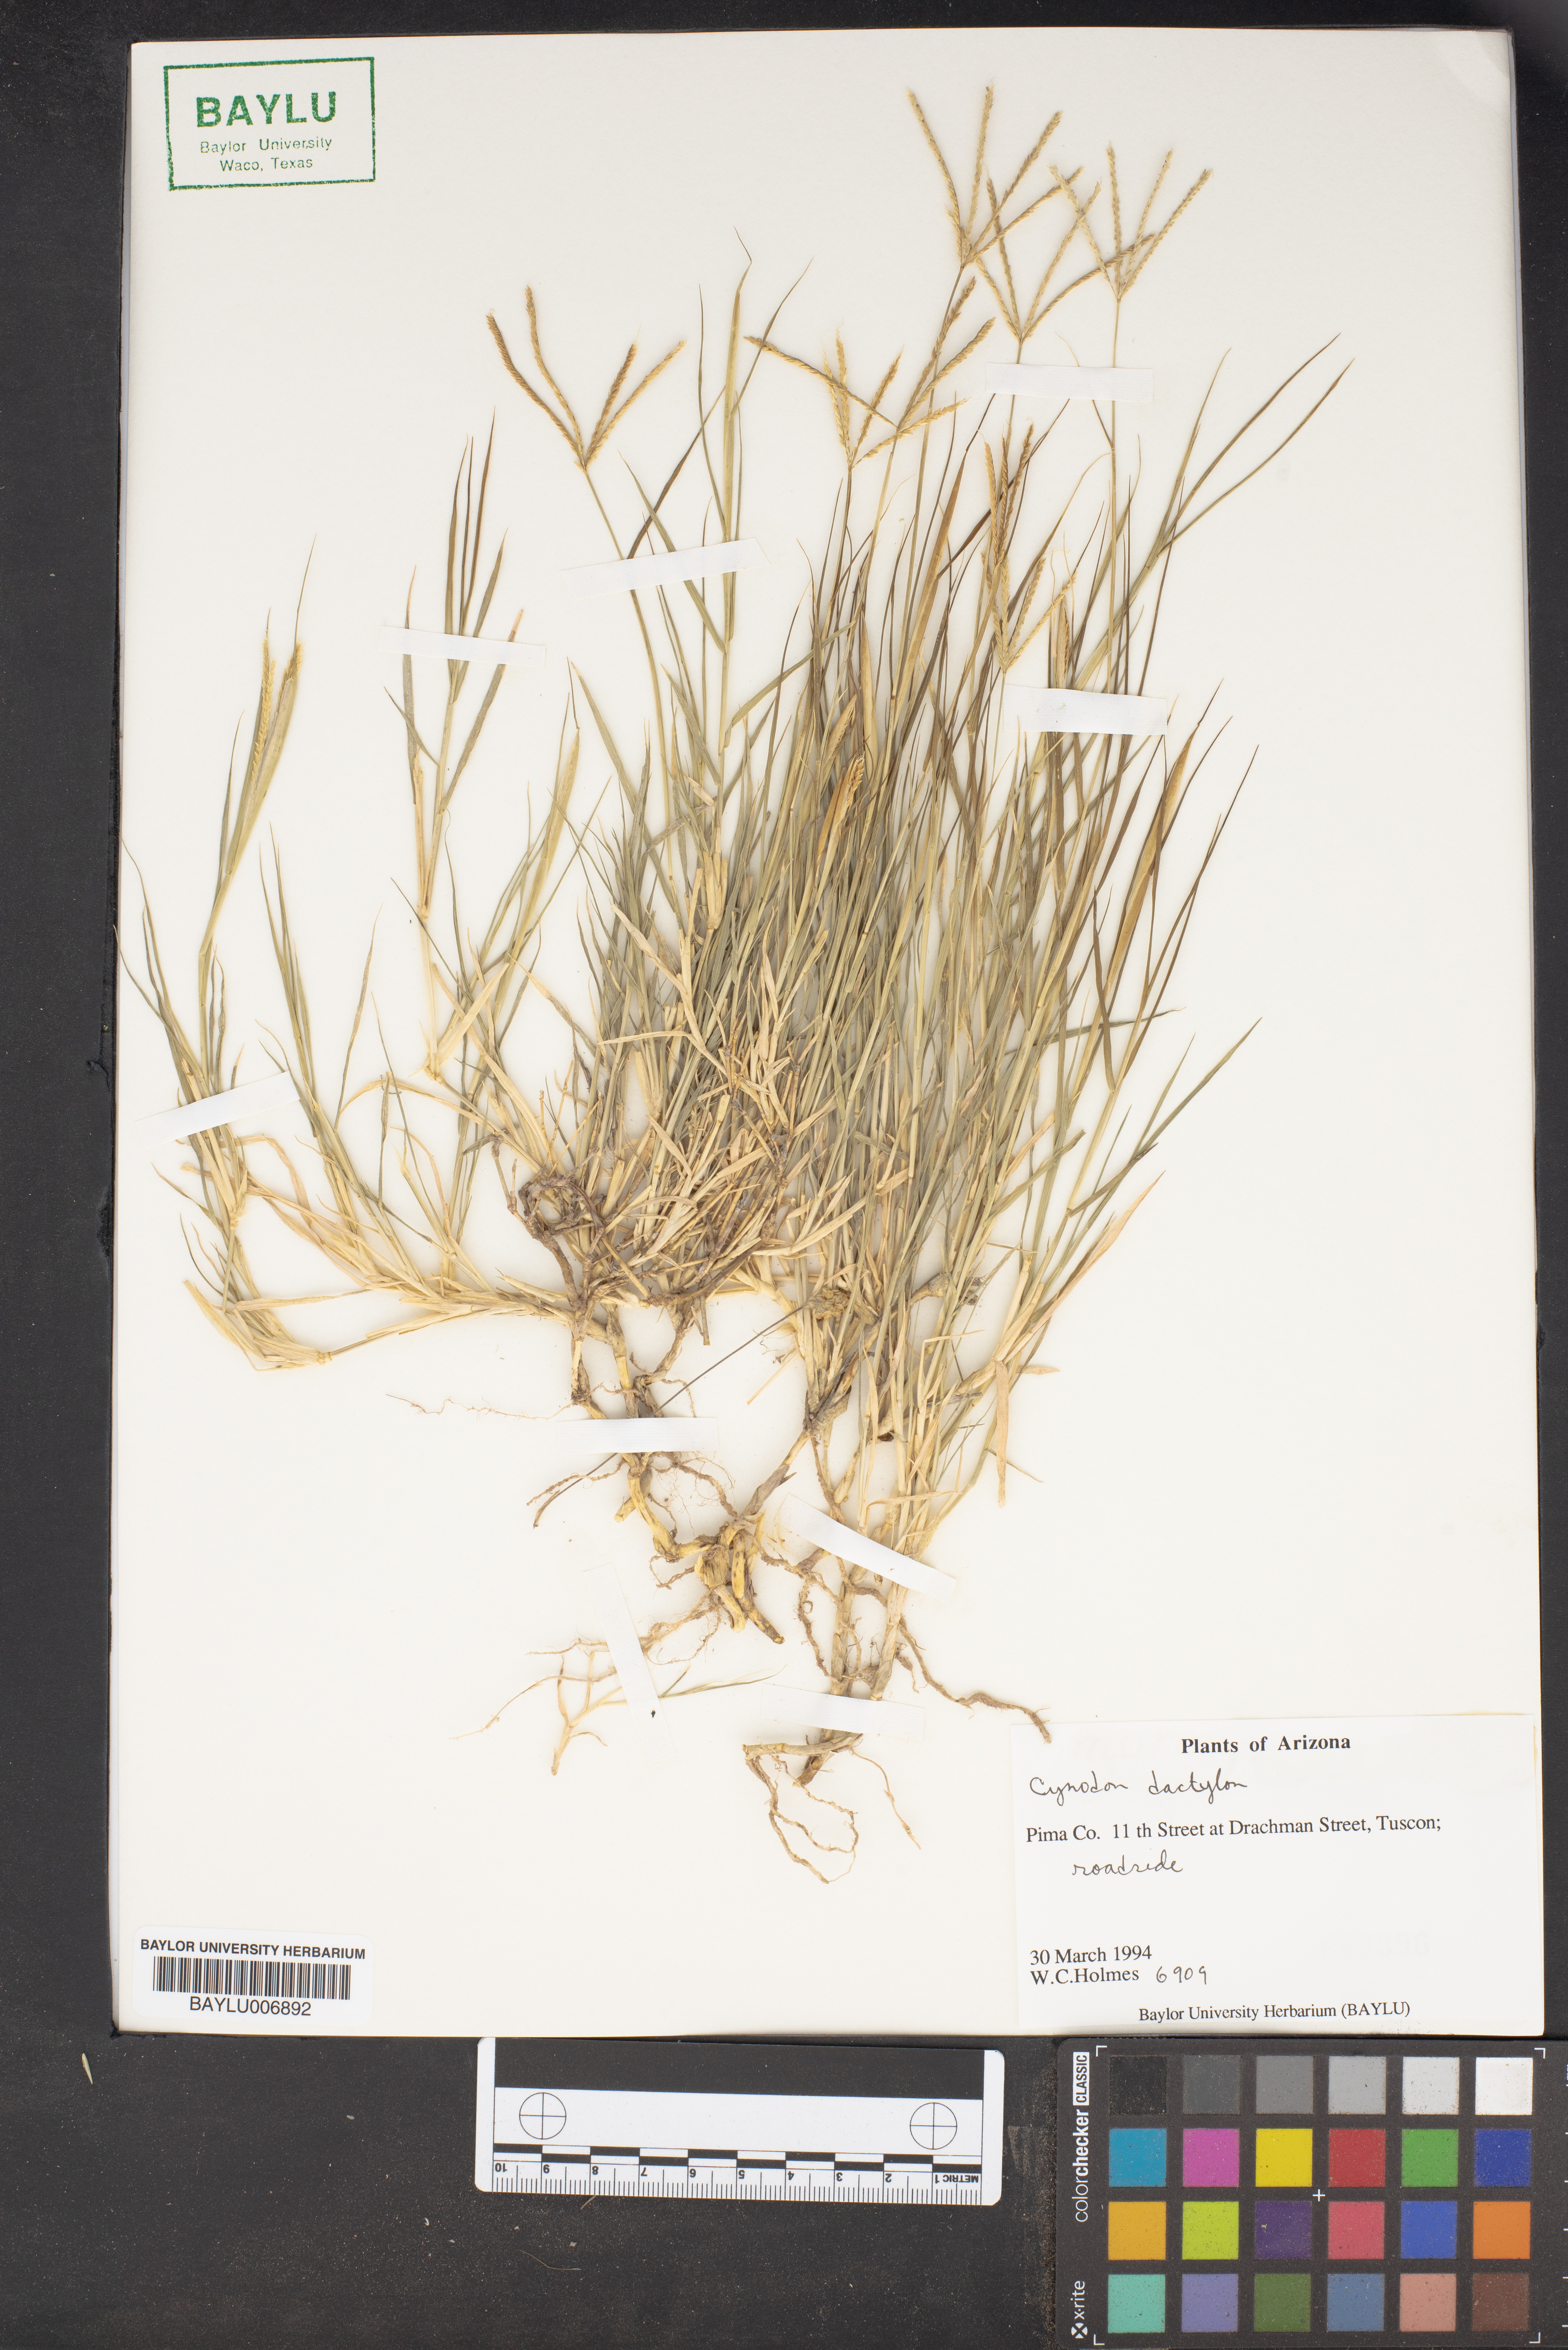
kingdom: Plantae
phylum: Tracheophyta
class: Liliopsida
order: Poales
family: Poaceae
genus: Cynodon
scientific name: Cynodon dactylon
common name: Bermuda grass
